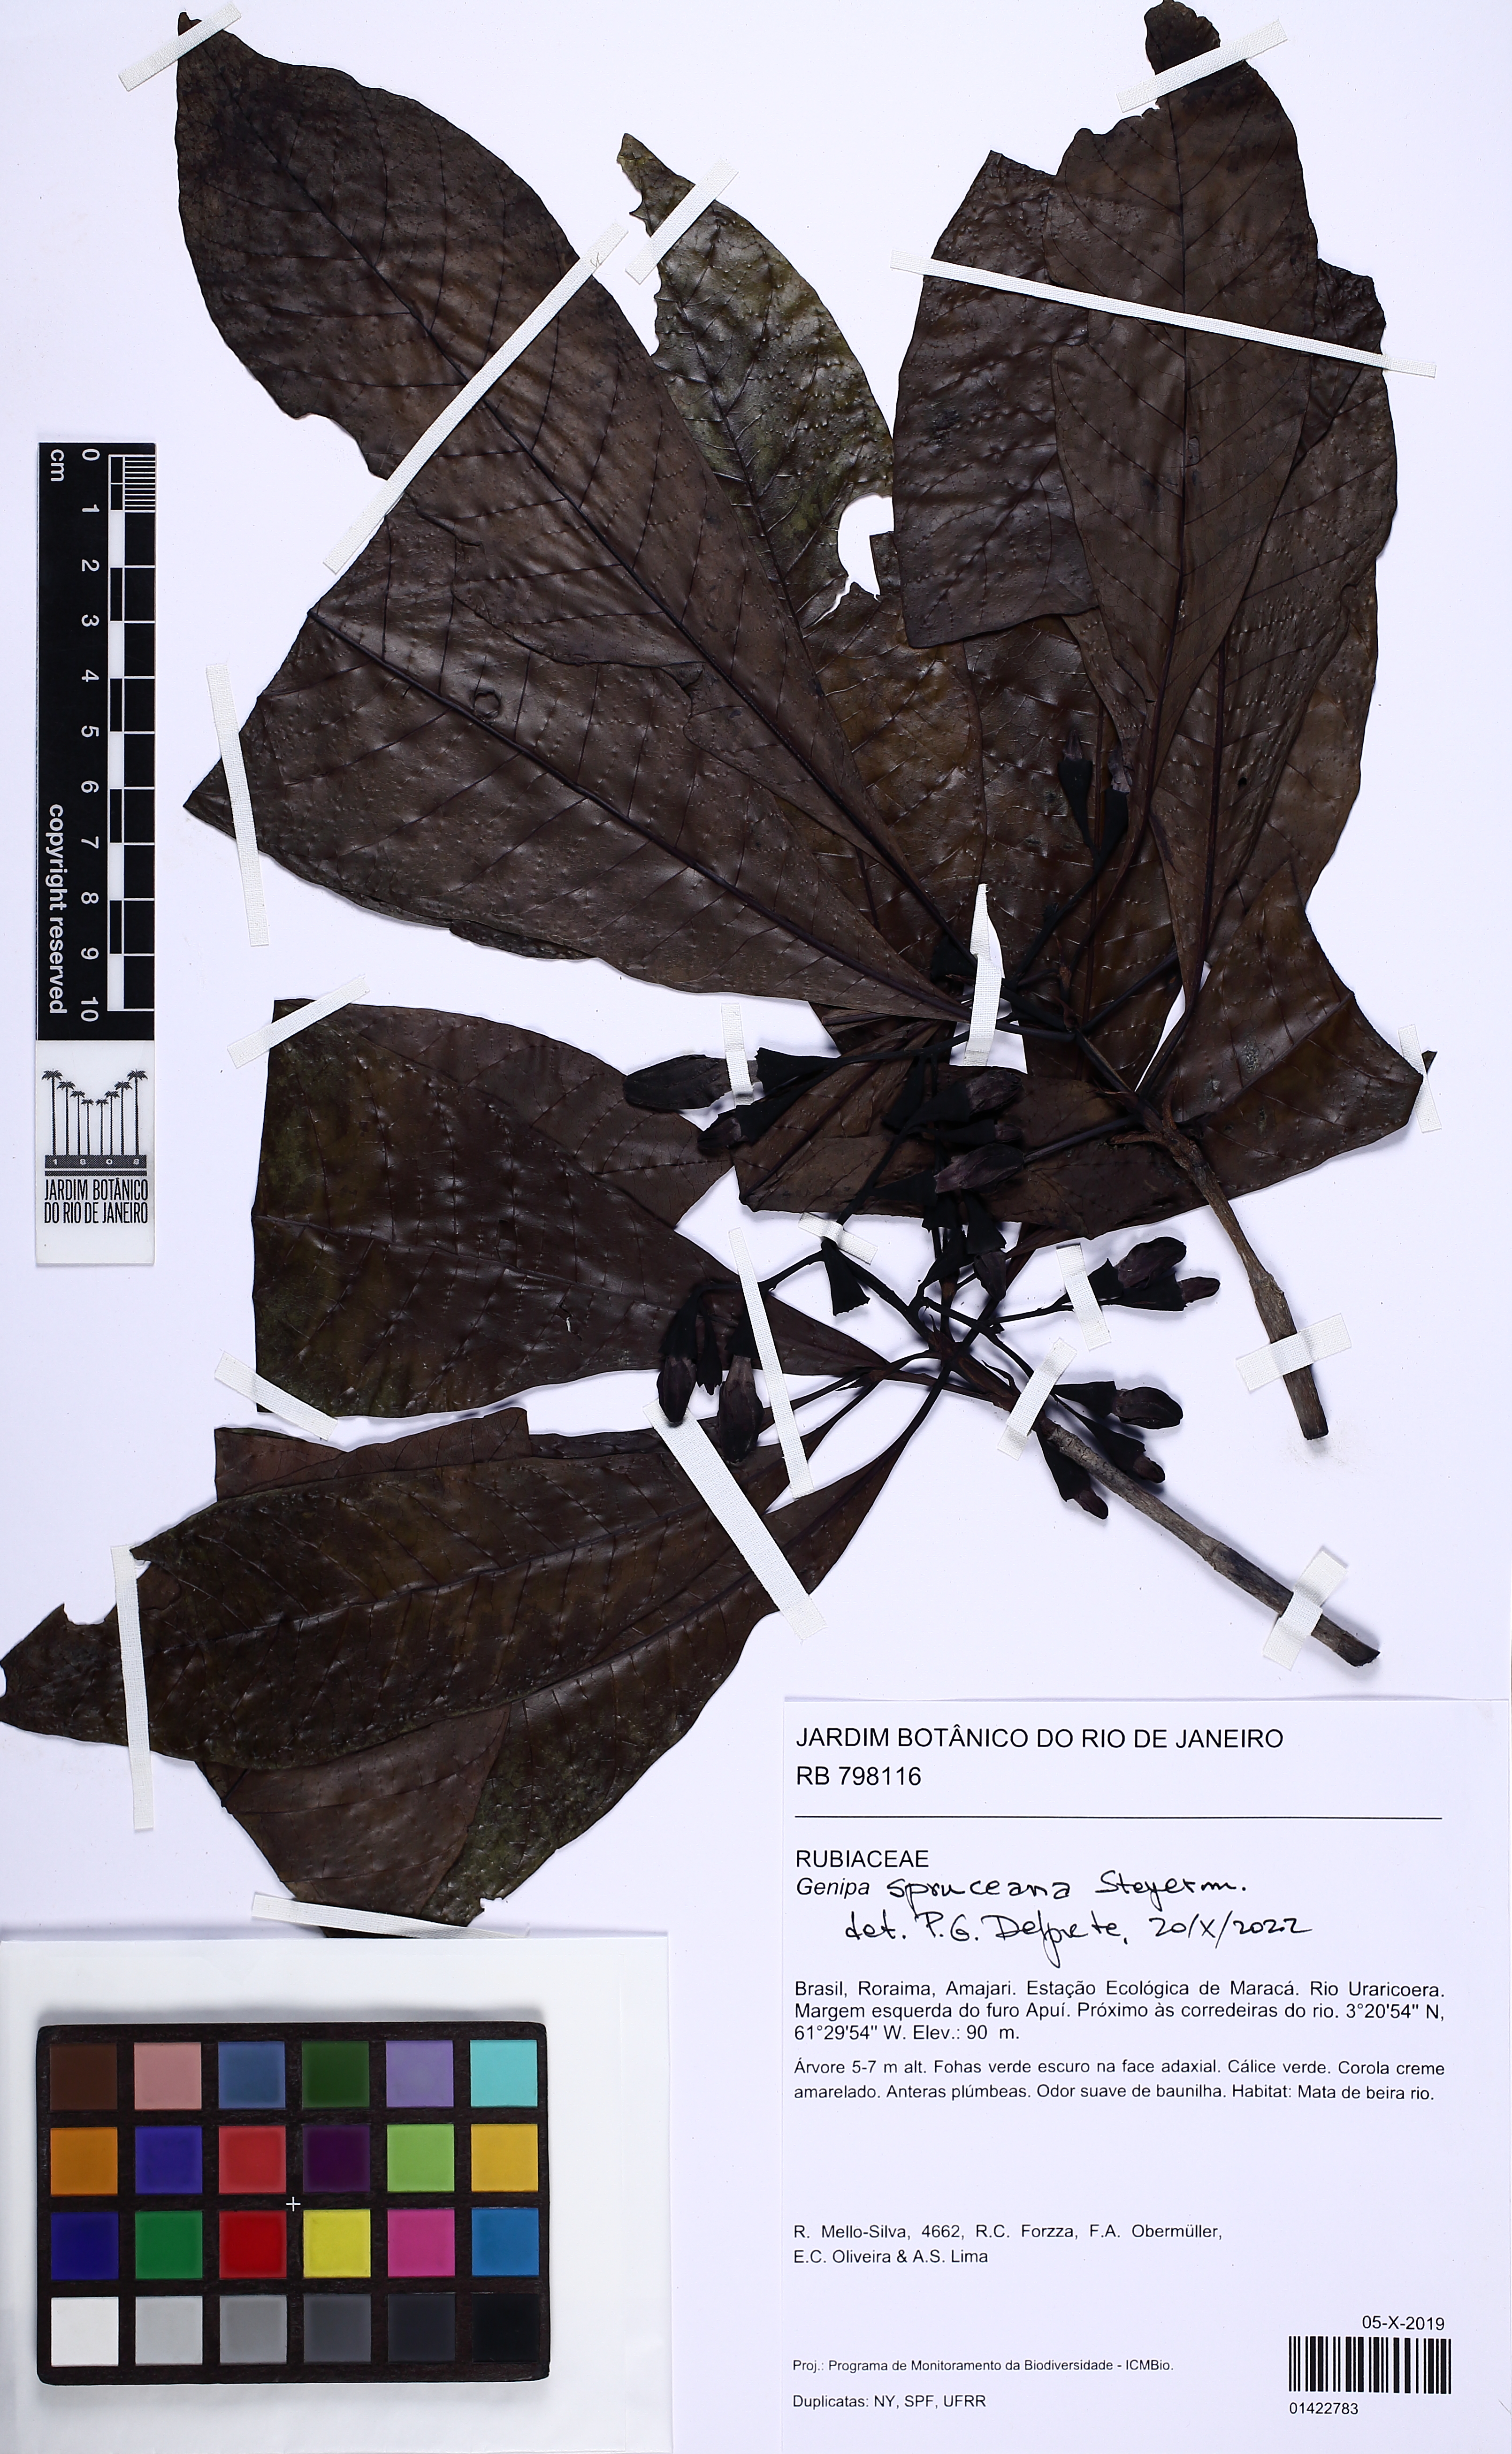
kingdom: Plantae
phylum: Tracheophyta
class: Magnoliopsida
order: Gentianales
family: Rubiaceae
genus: Genipa
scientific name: Genipa spruceana
